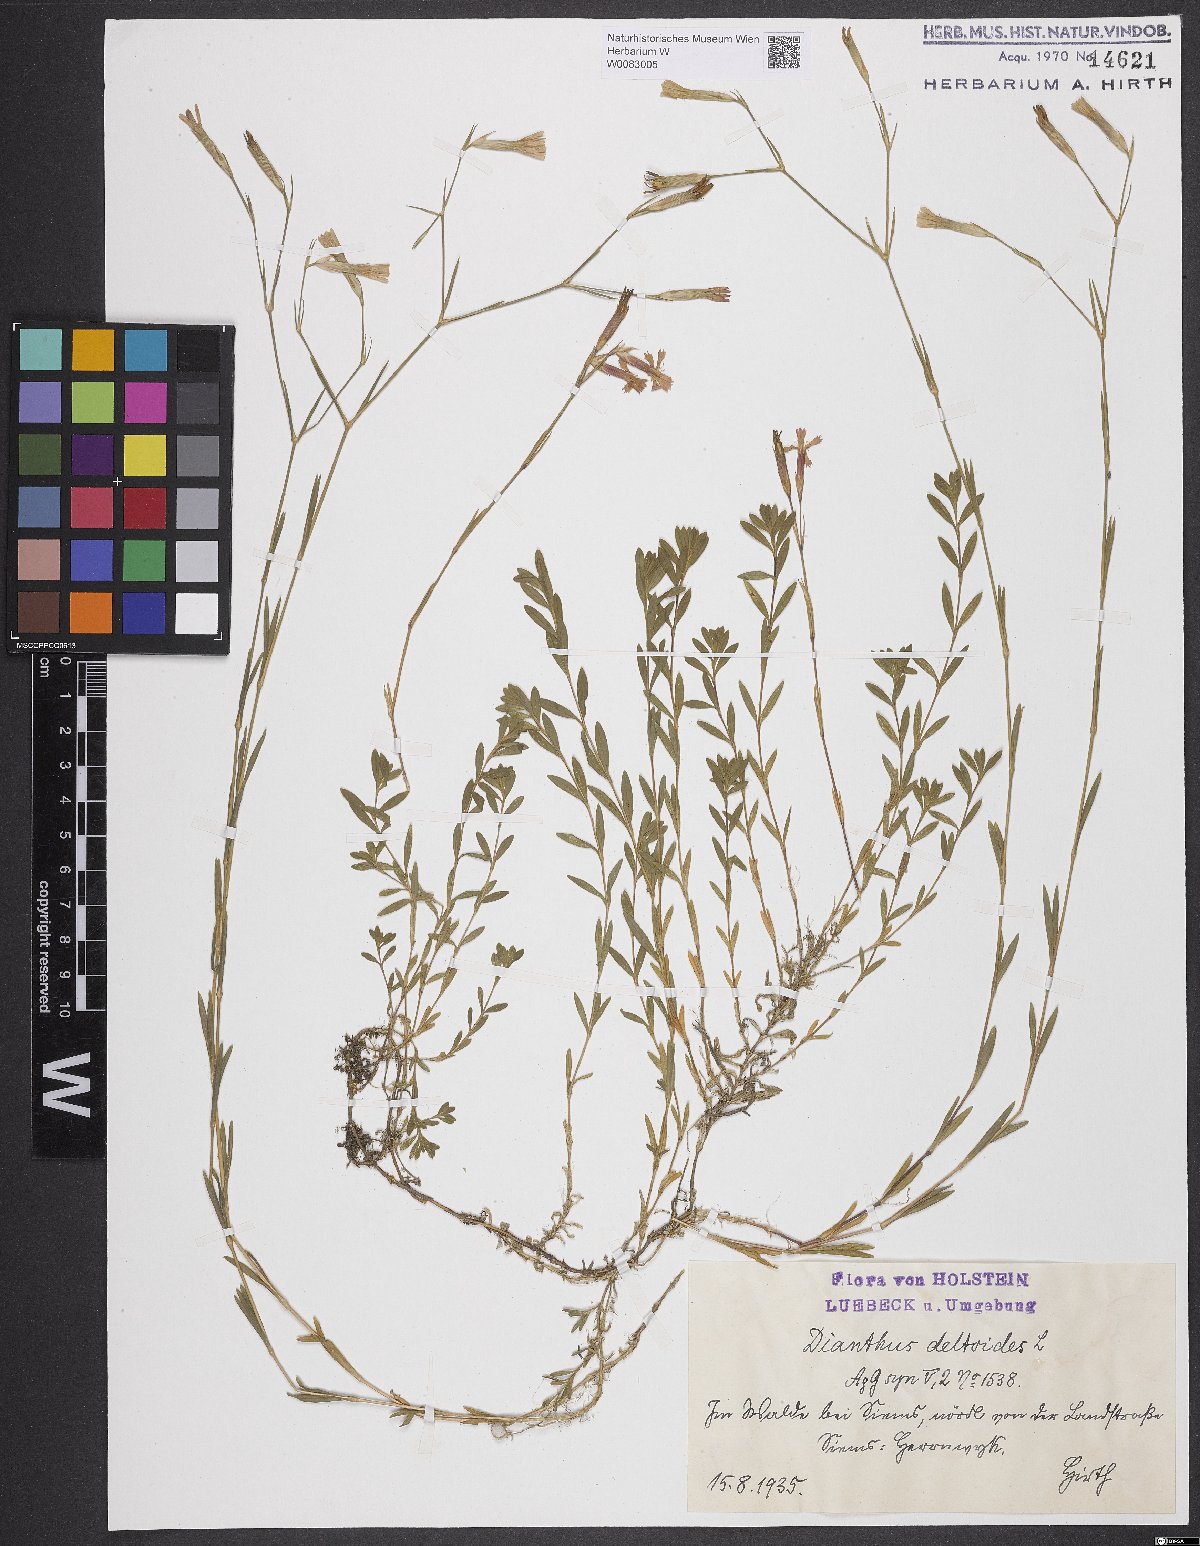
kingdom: Plantae
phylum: Tracheophyta
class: Magnoliopsida
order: Caryophyllales
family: Caryophyllaceae
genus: Dianthus
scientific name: Dianthus deltoides
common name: Maiden pink
